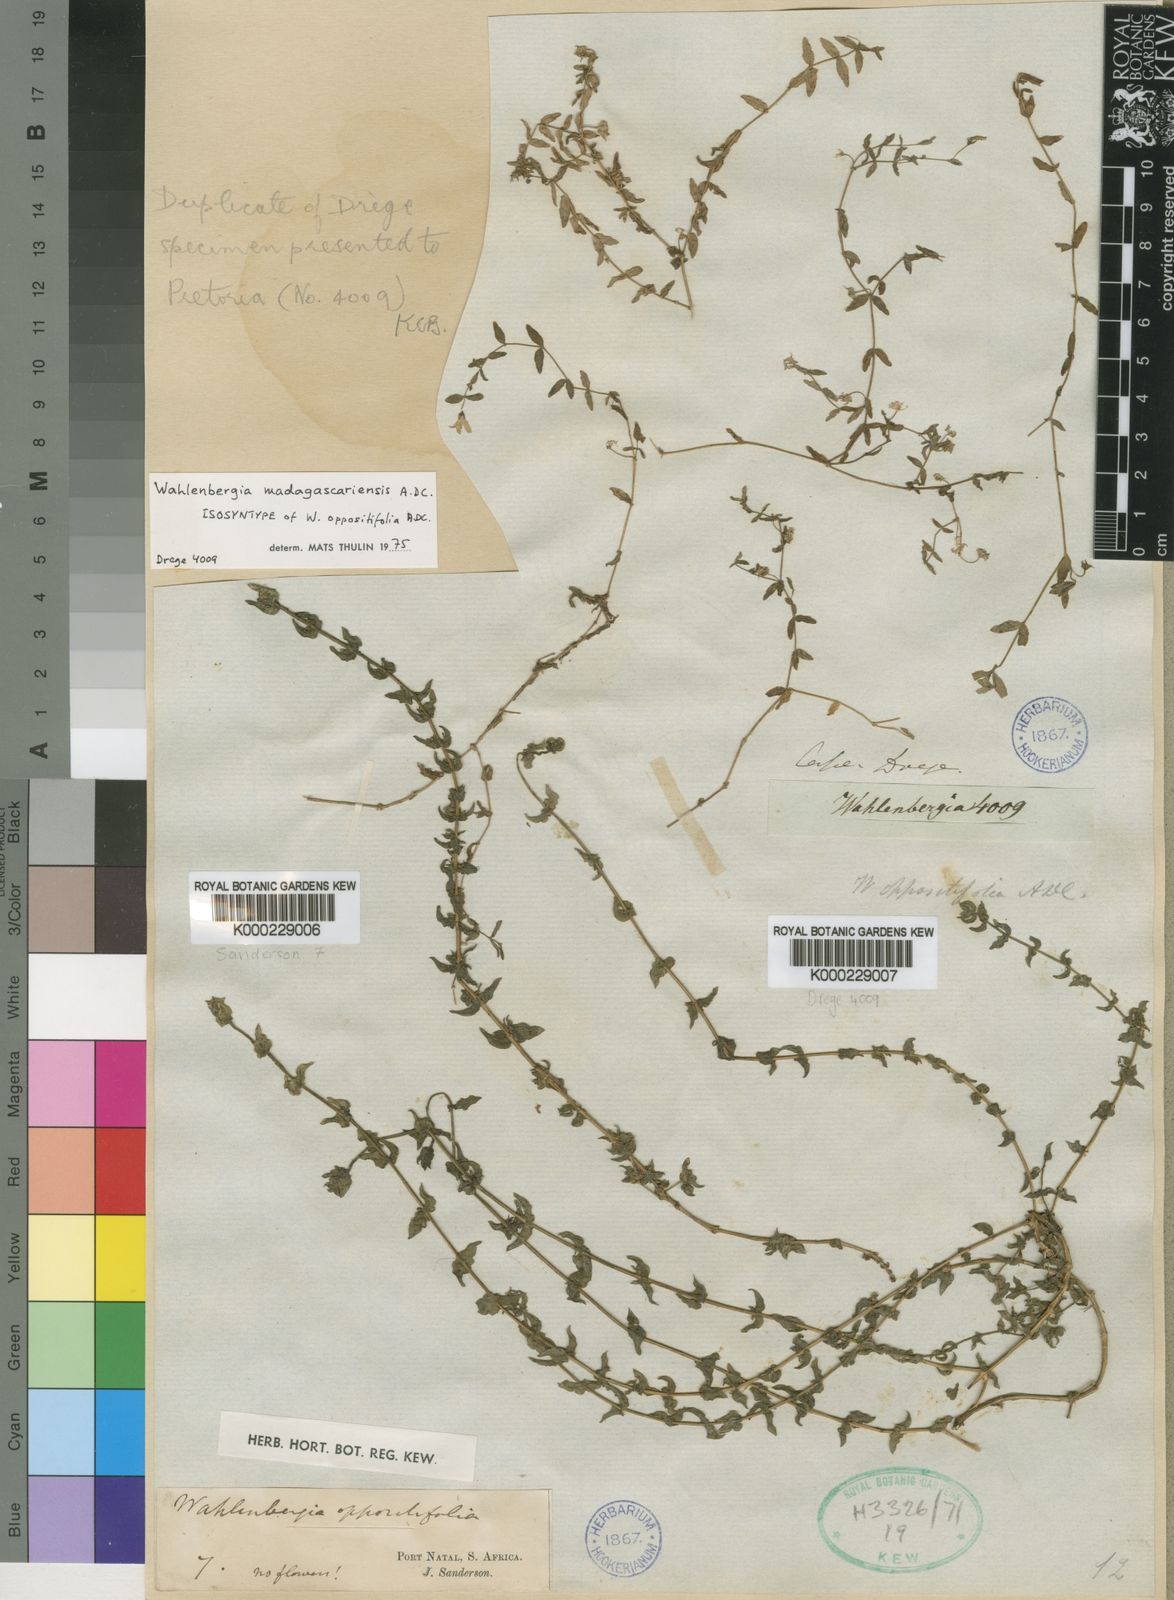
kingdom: Plantae
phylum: Tracheophyta
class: Magnoliopsida
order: Asterales
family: Campanulaceae
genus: Wahlenbergia
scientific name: Wahlenbergia madagascariensis
